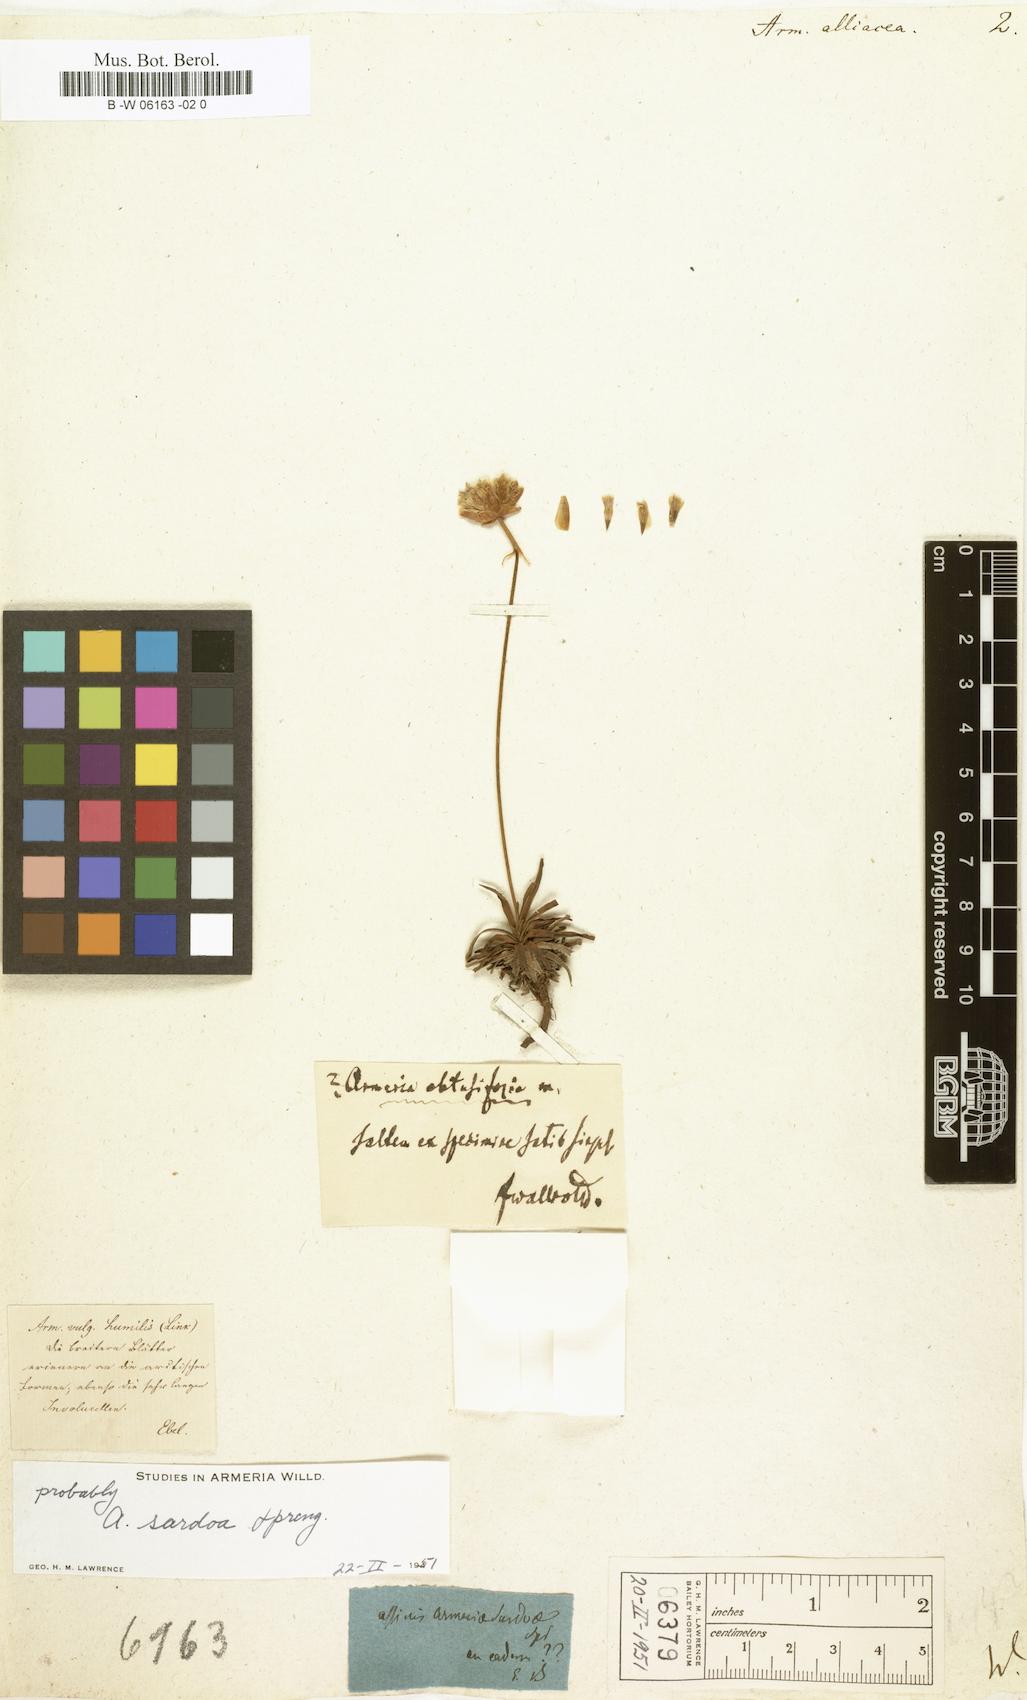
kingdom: Plantae
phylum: Tracheophyta
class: Magnoliopsida
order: Caryophyllales
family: Plumbaginaceae
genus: Armeria
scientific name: Armeria alliacea
